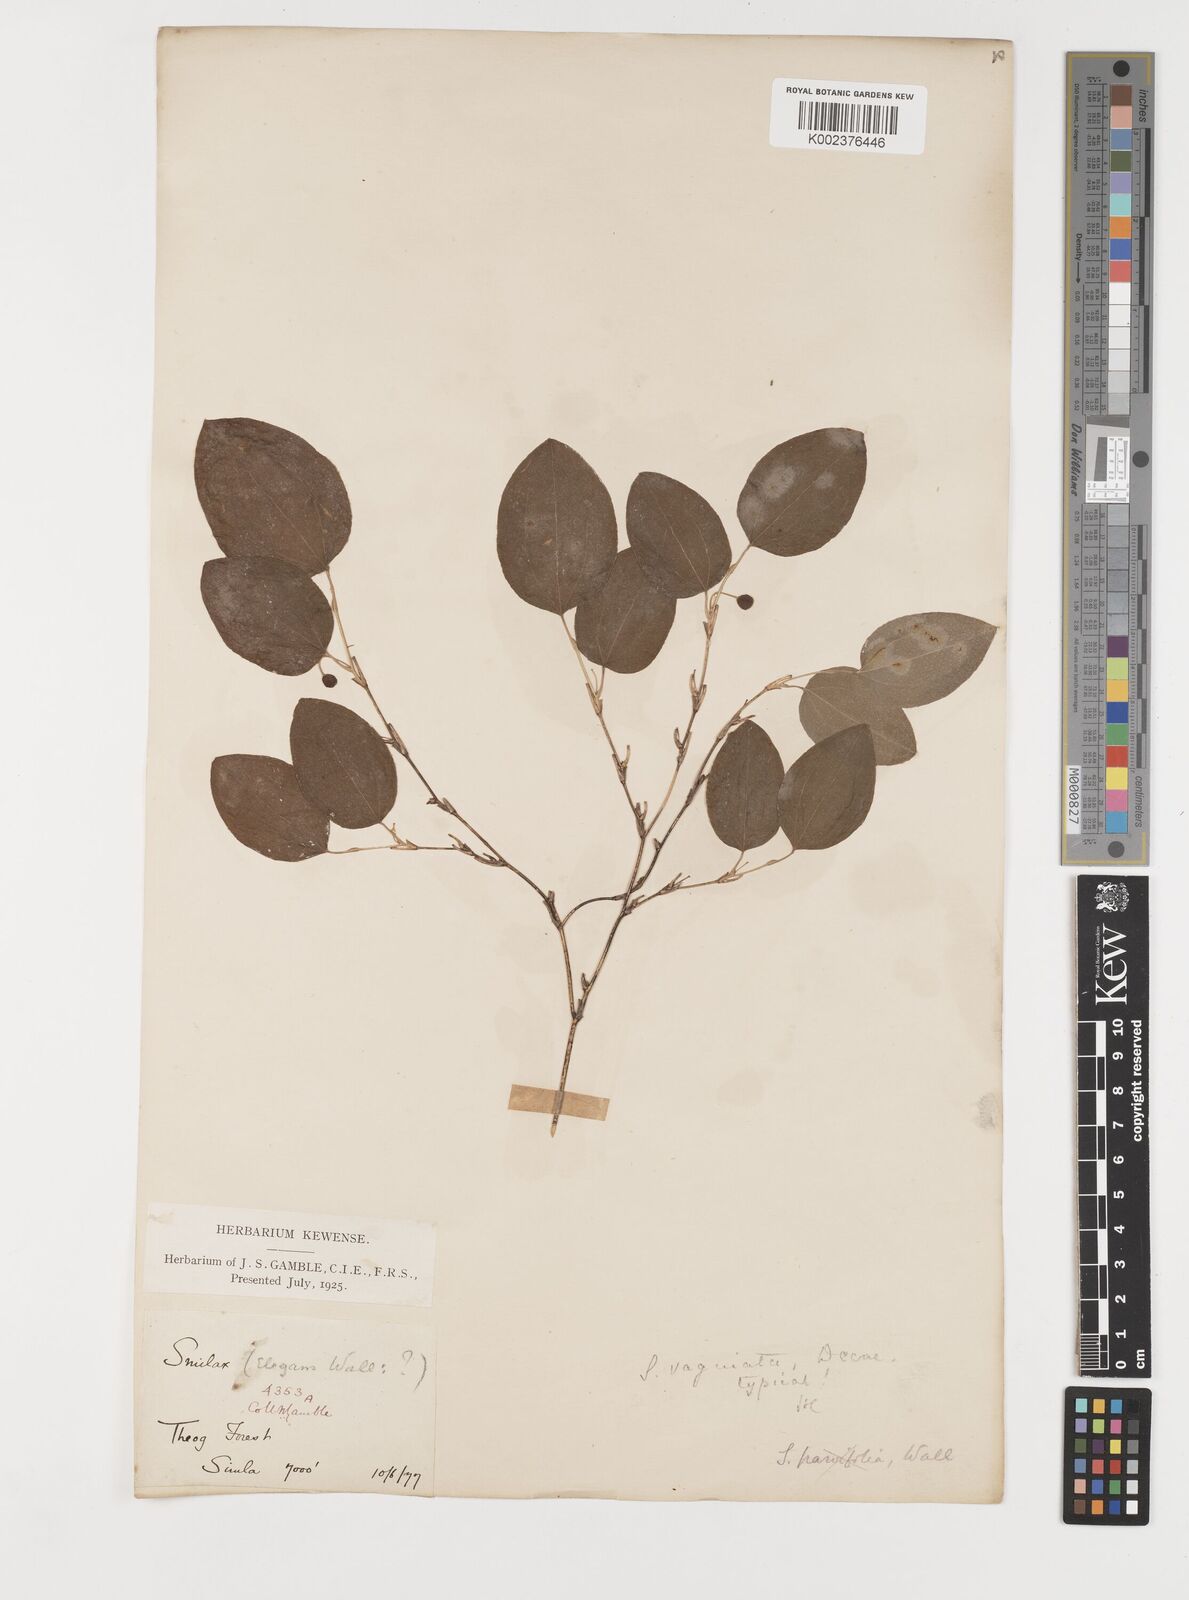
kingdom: Plantae
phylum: Tracheophyta
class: Liliopsida
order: Liliales
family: Smilacaceae
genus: Smilax
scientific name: Smilax vaginata
